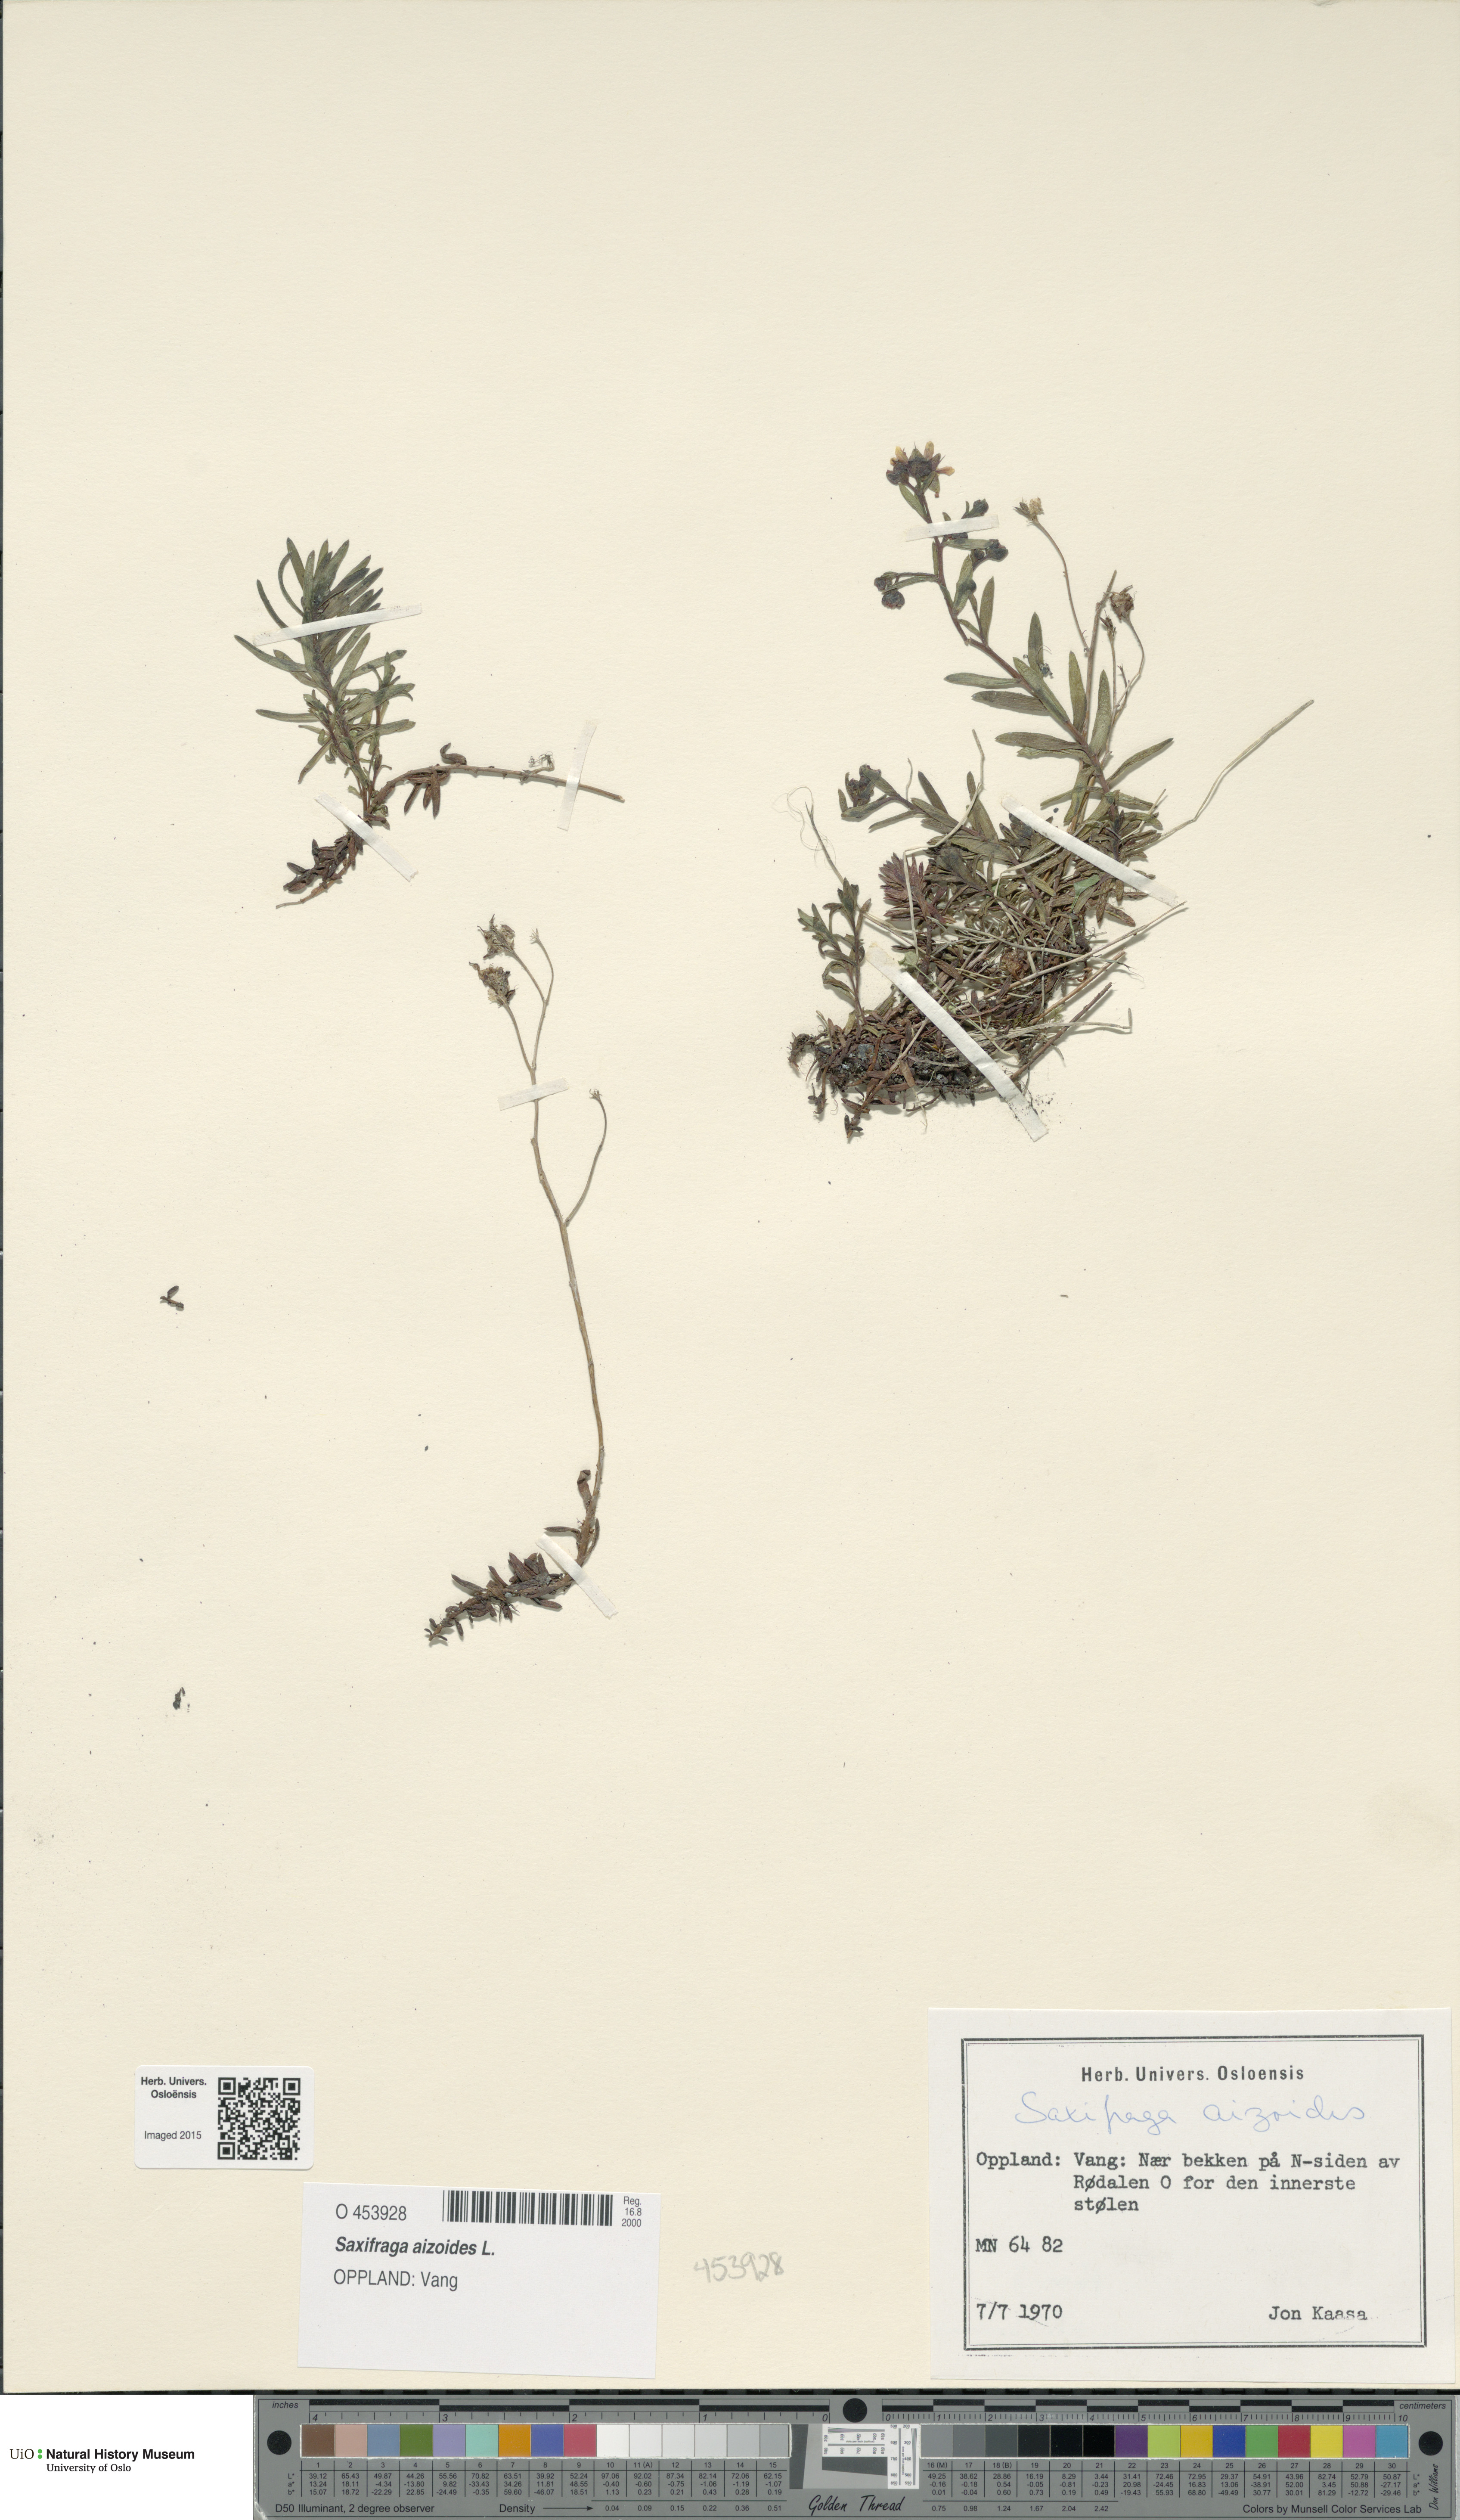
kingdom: Plantae
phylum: Tracheophyta
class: Magnoliopsida
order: Saxifragales
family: Saxifragaceae
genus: Saxifraga
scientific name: Saxifraga aizoides
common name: Yellow mountain saxifrage
